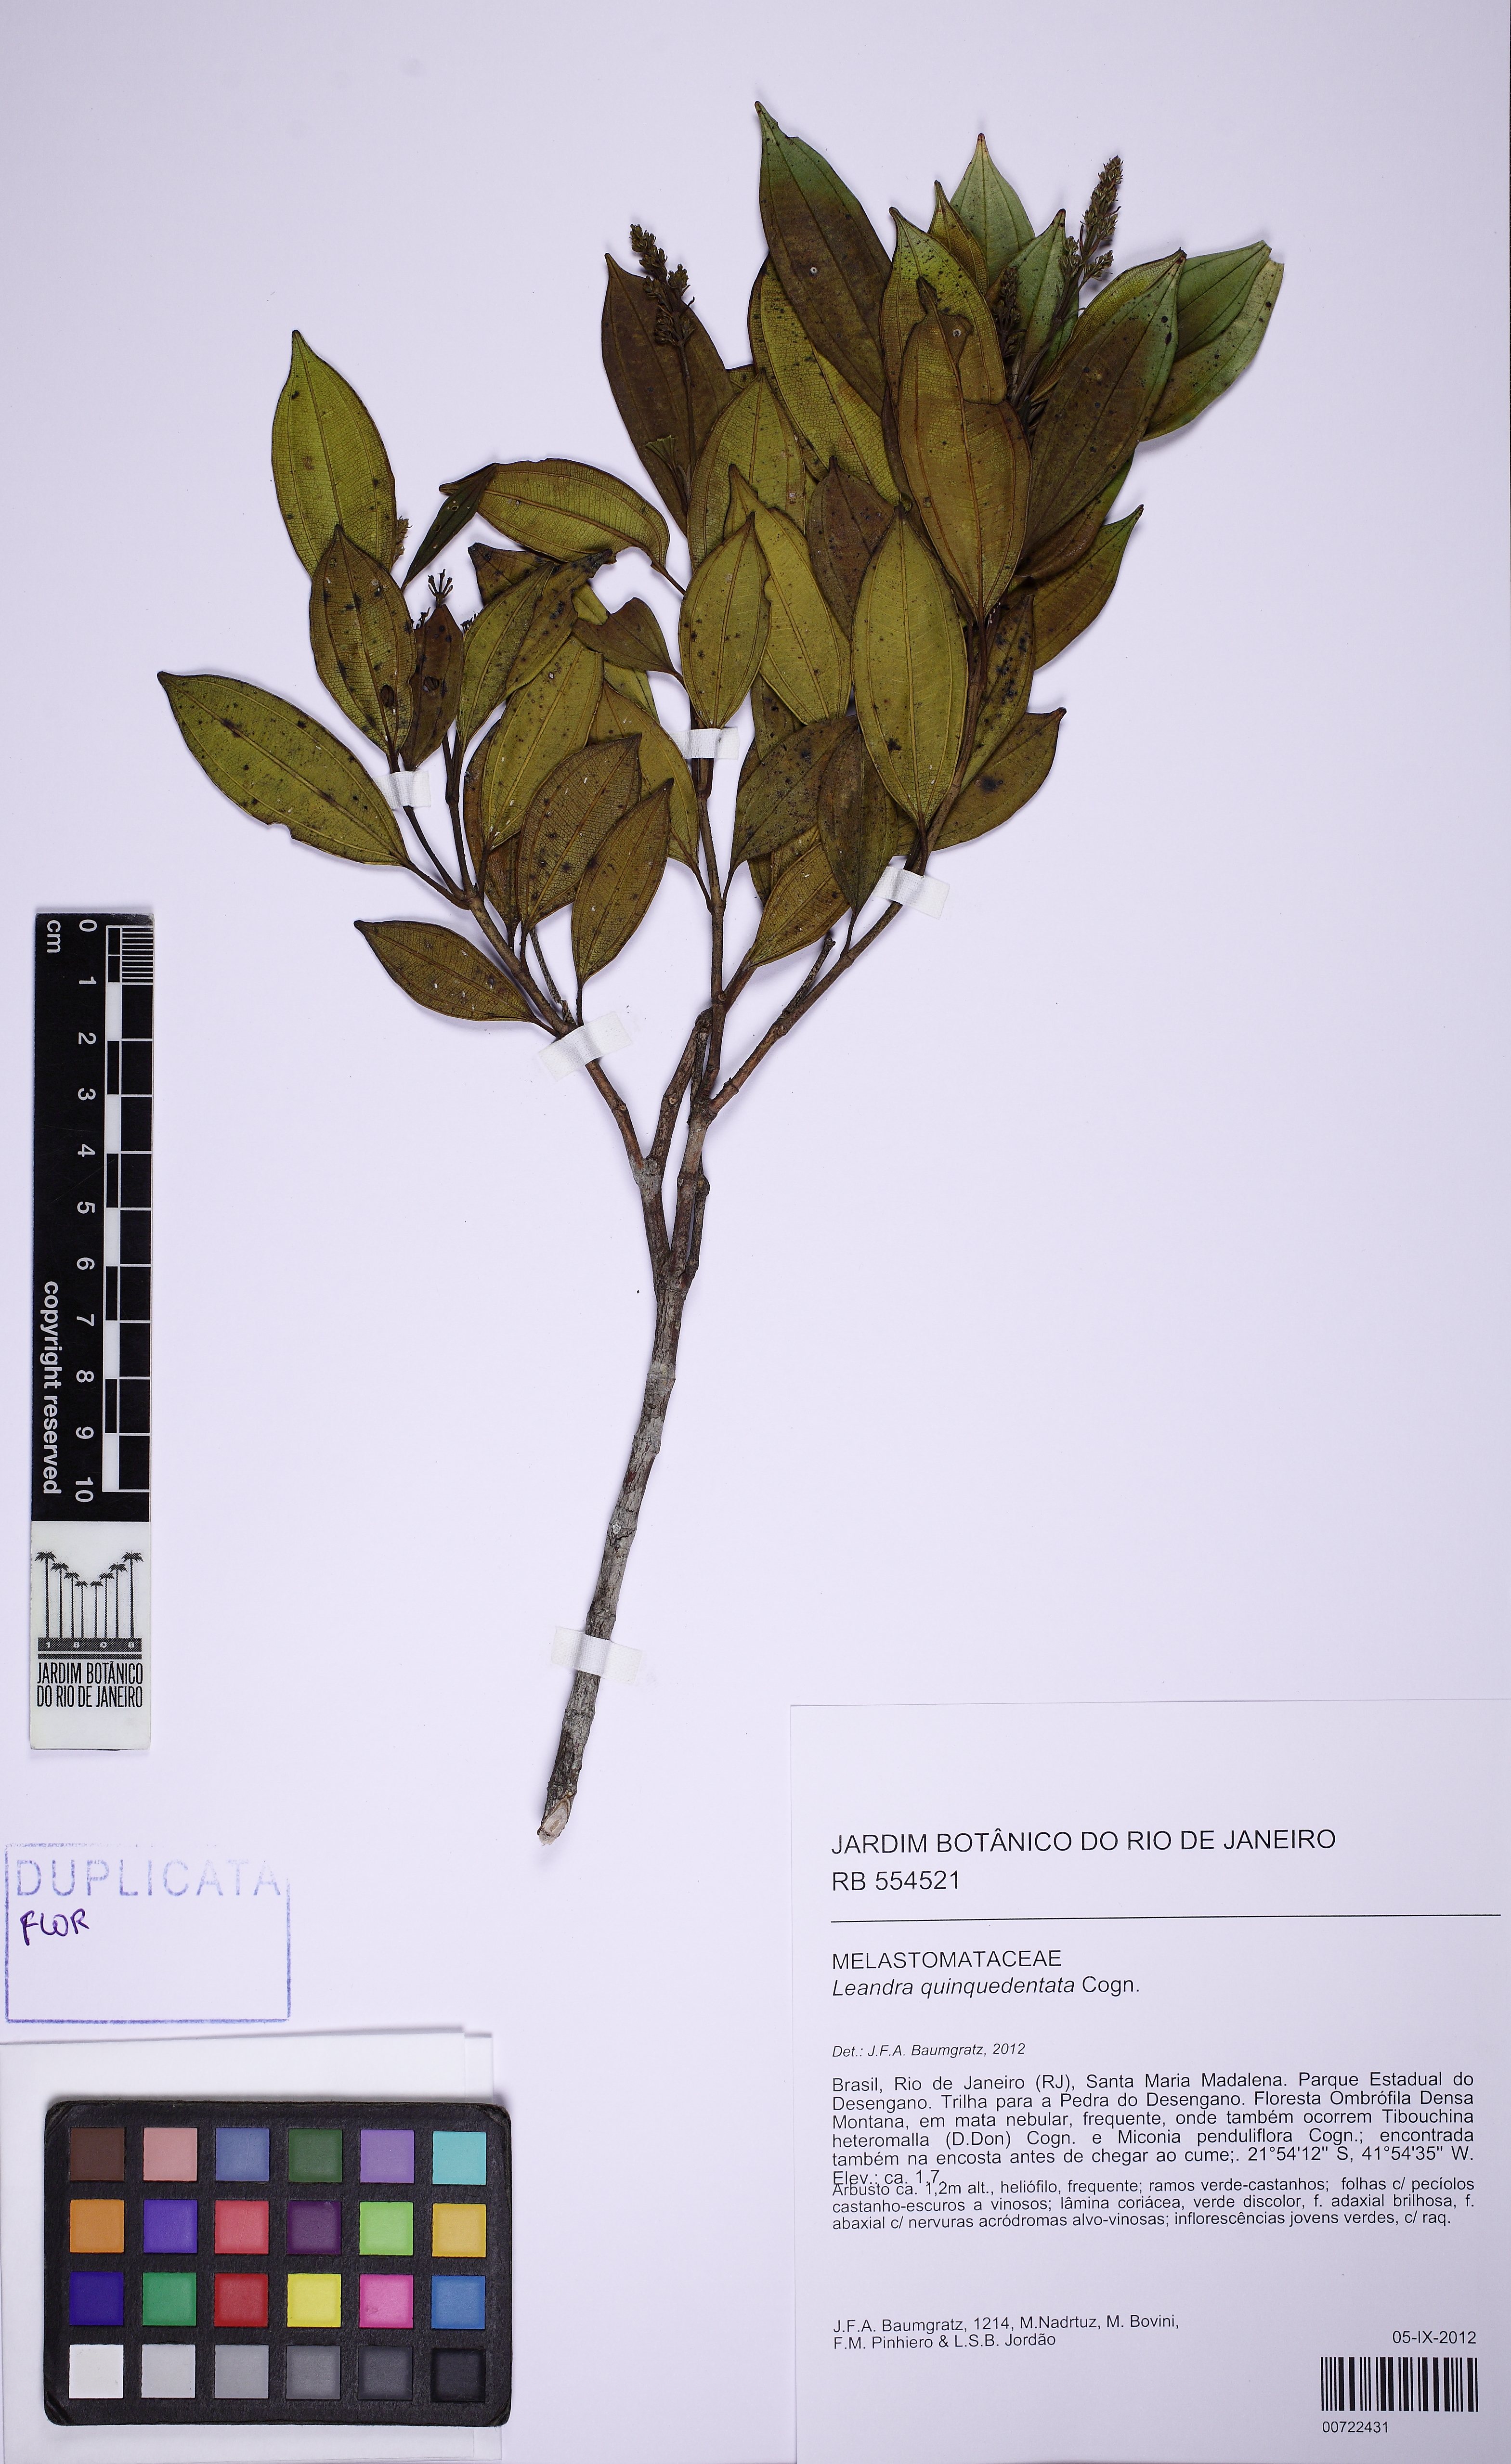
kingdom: Plantae
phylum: Tracheophyta
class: Magnoliopsida
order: Myrtales
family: Melastomataceae
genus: Miconia
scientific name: Miconia quinquedentata
